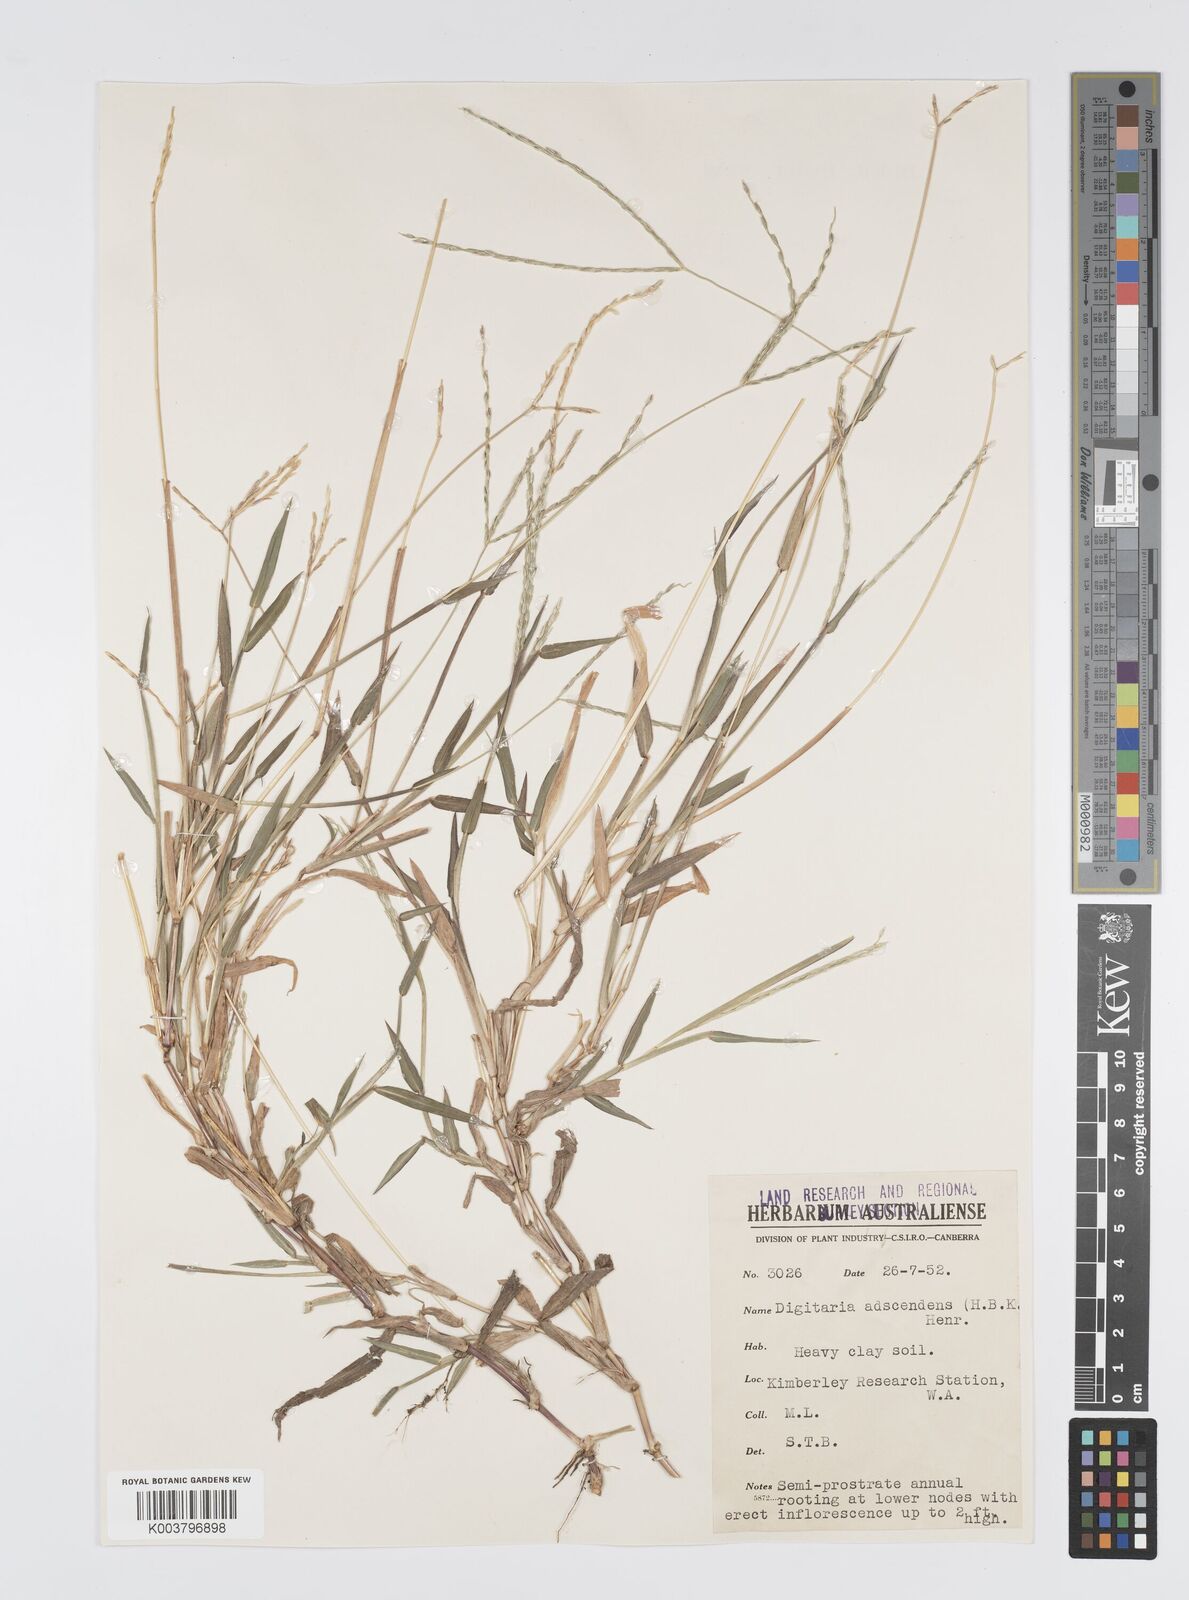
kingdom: Plantae
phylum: Tracheophyta
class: Liliopsida
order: Poales
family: Poaceae
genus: Digitaria
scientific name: Digitaria bicornis
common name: Asian crabgrass
